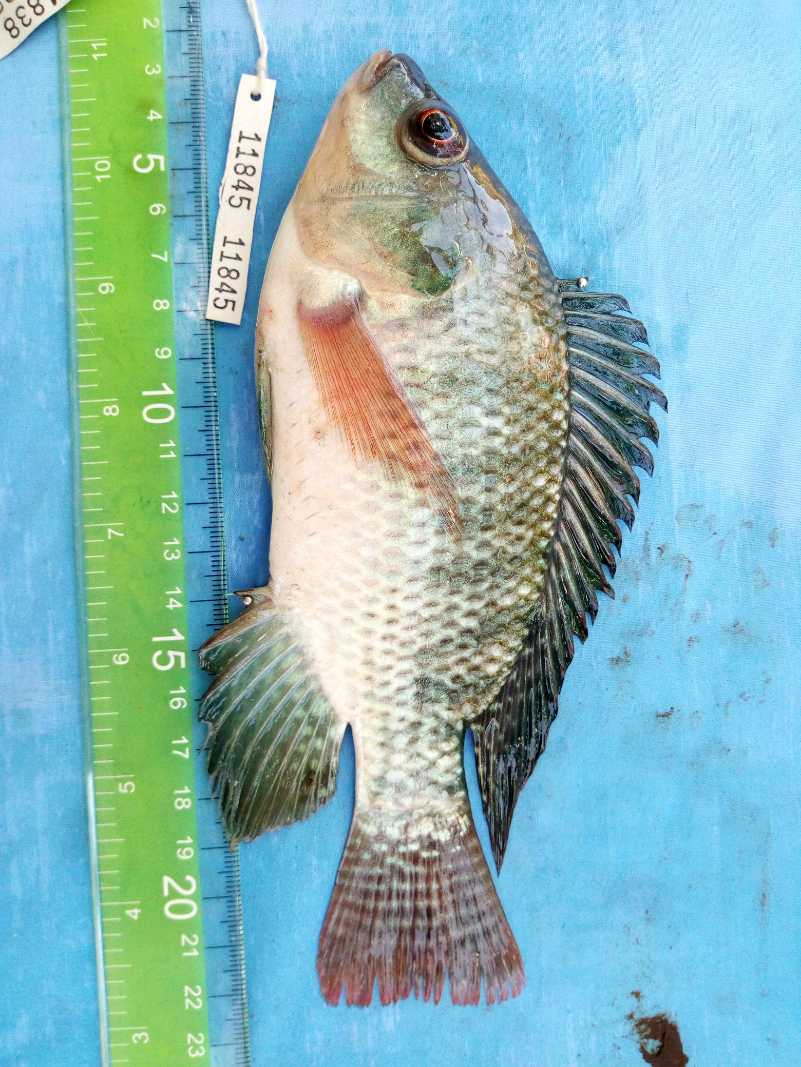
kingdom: Animalia
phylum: Chordata
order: Perciformes
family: Cichlidae
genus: Oreochromis
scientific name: Oreochromis niloticus
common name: Nile tilapia
